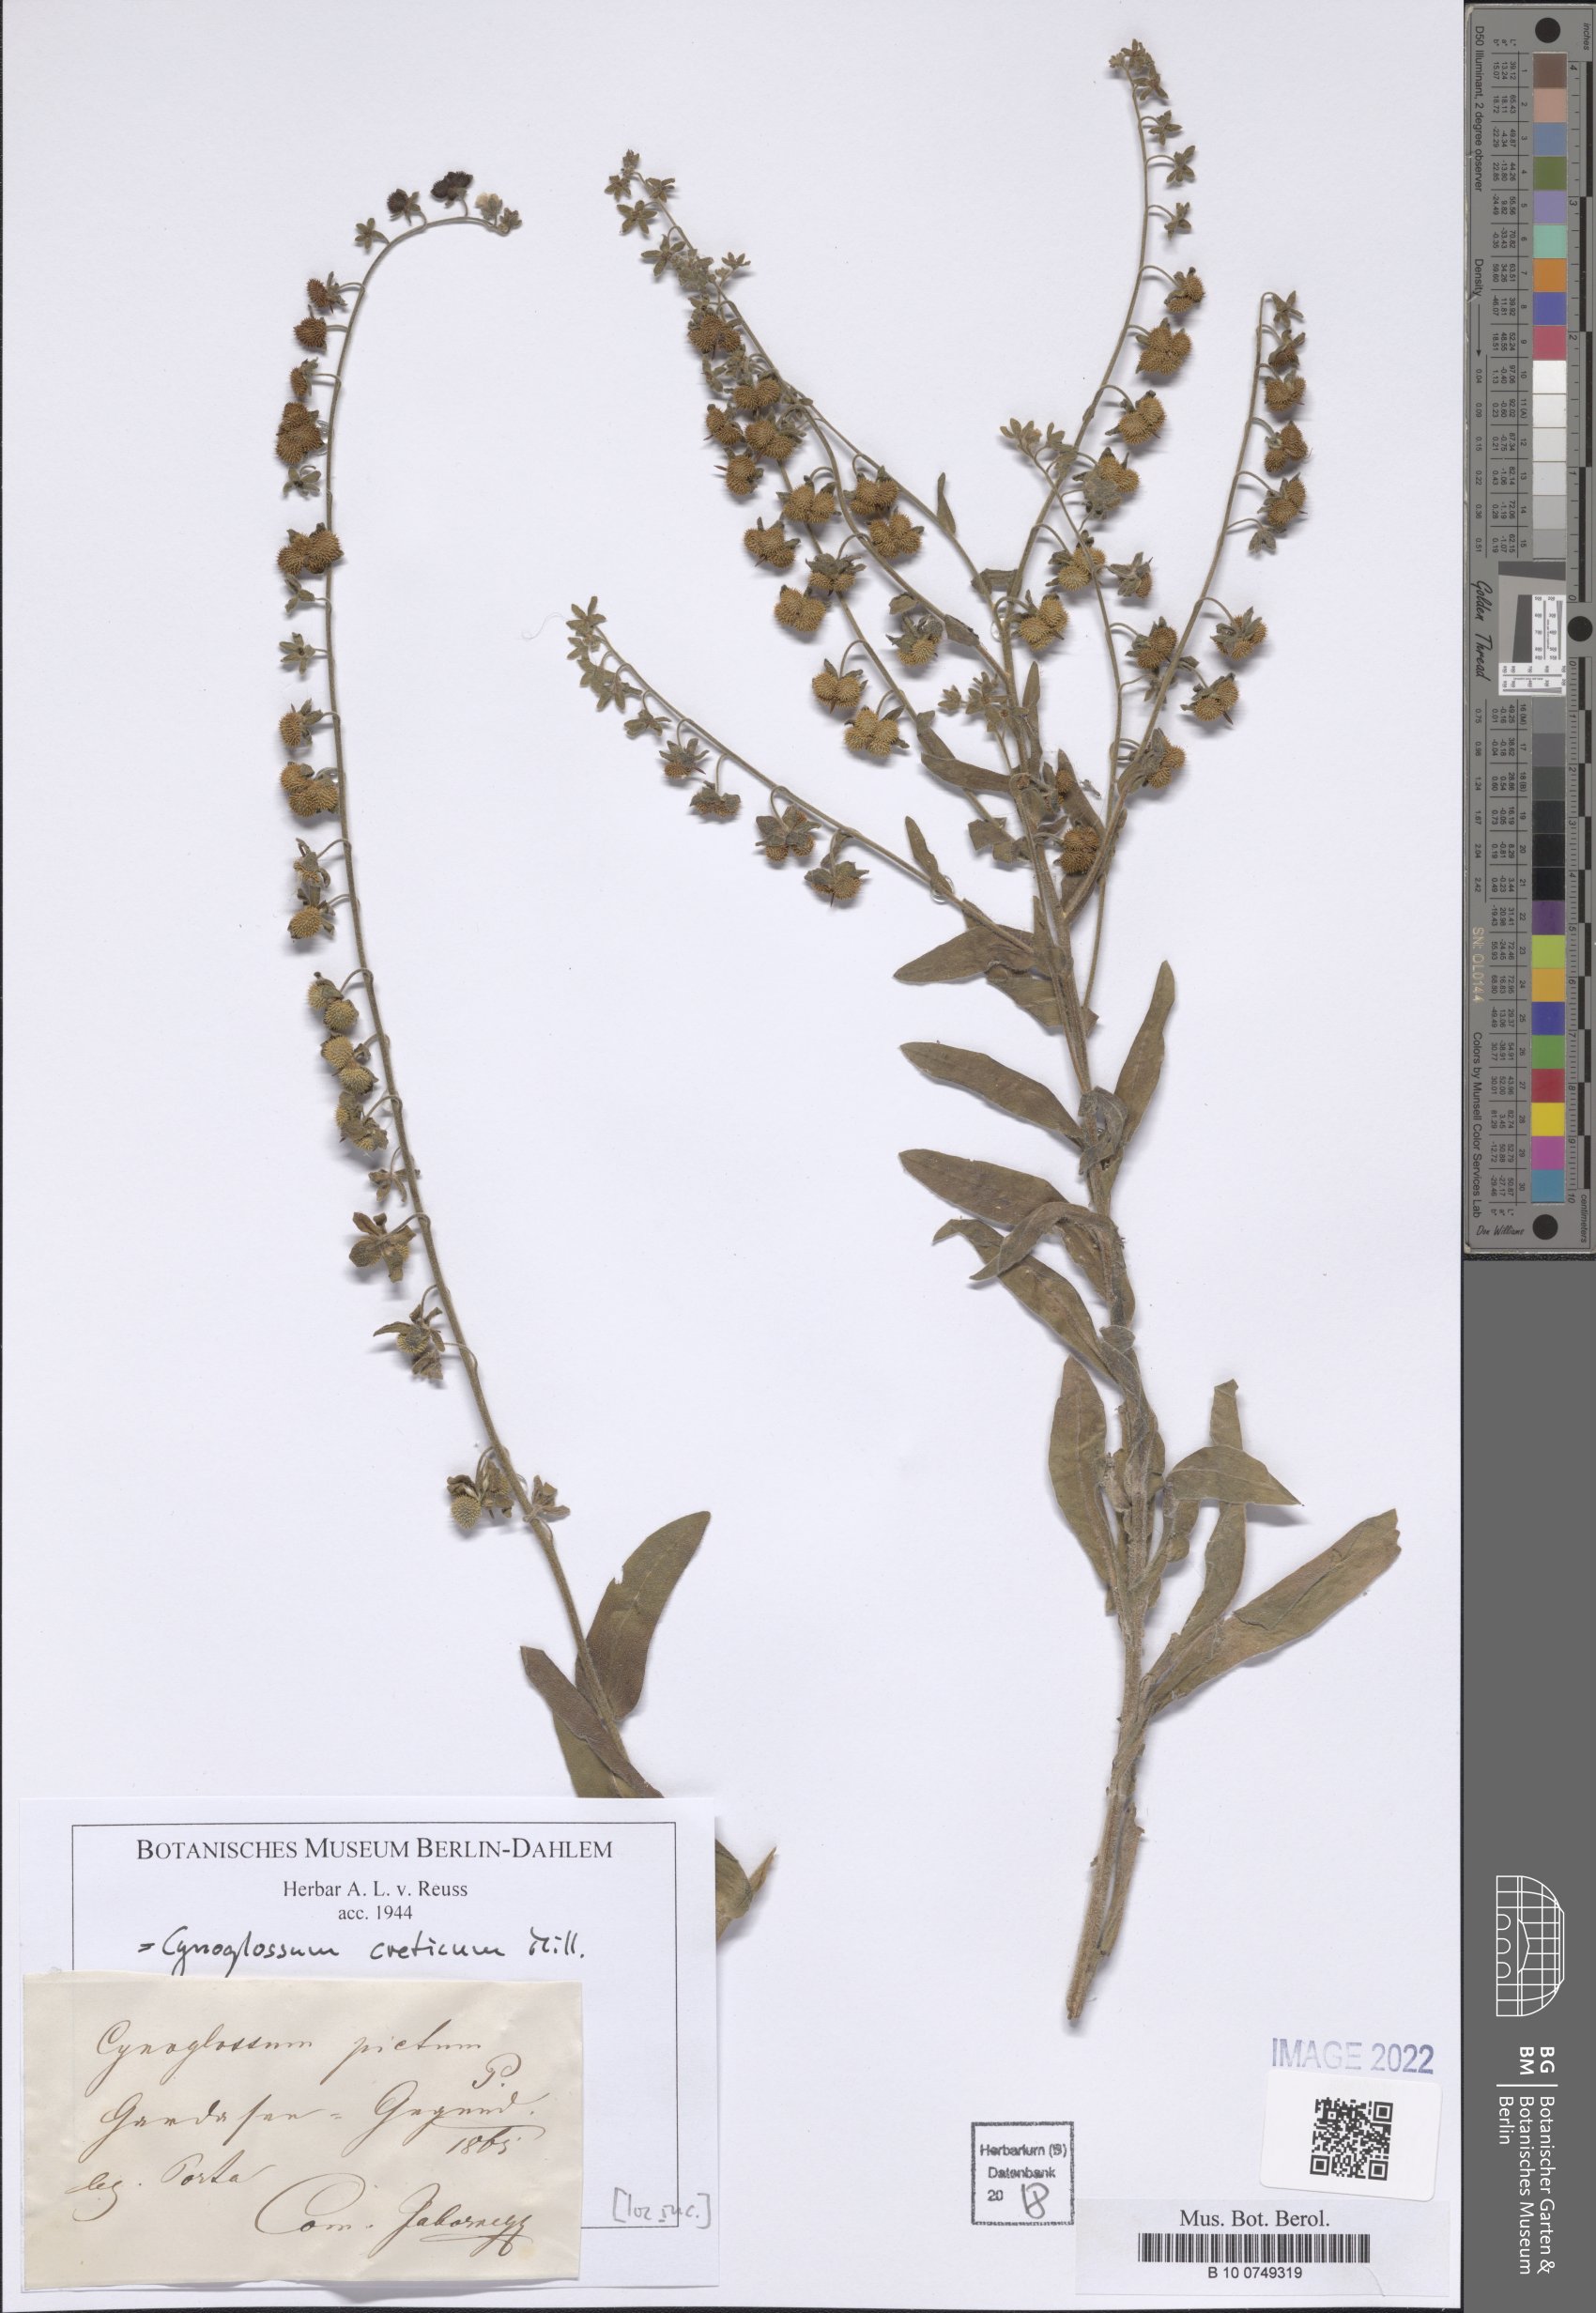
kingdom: Plantae
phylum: Tracheophyta
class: Magnoliopsida
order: Boraginales
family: Boraginaceae
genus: Cynoglossum
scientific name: Cynoglossum creticum
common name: Blue hound's tongue
